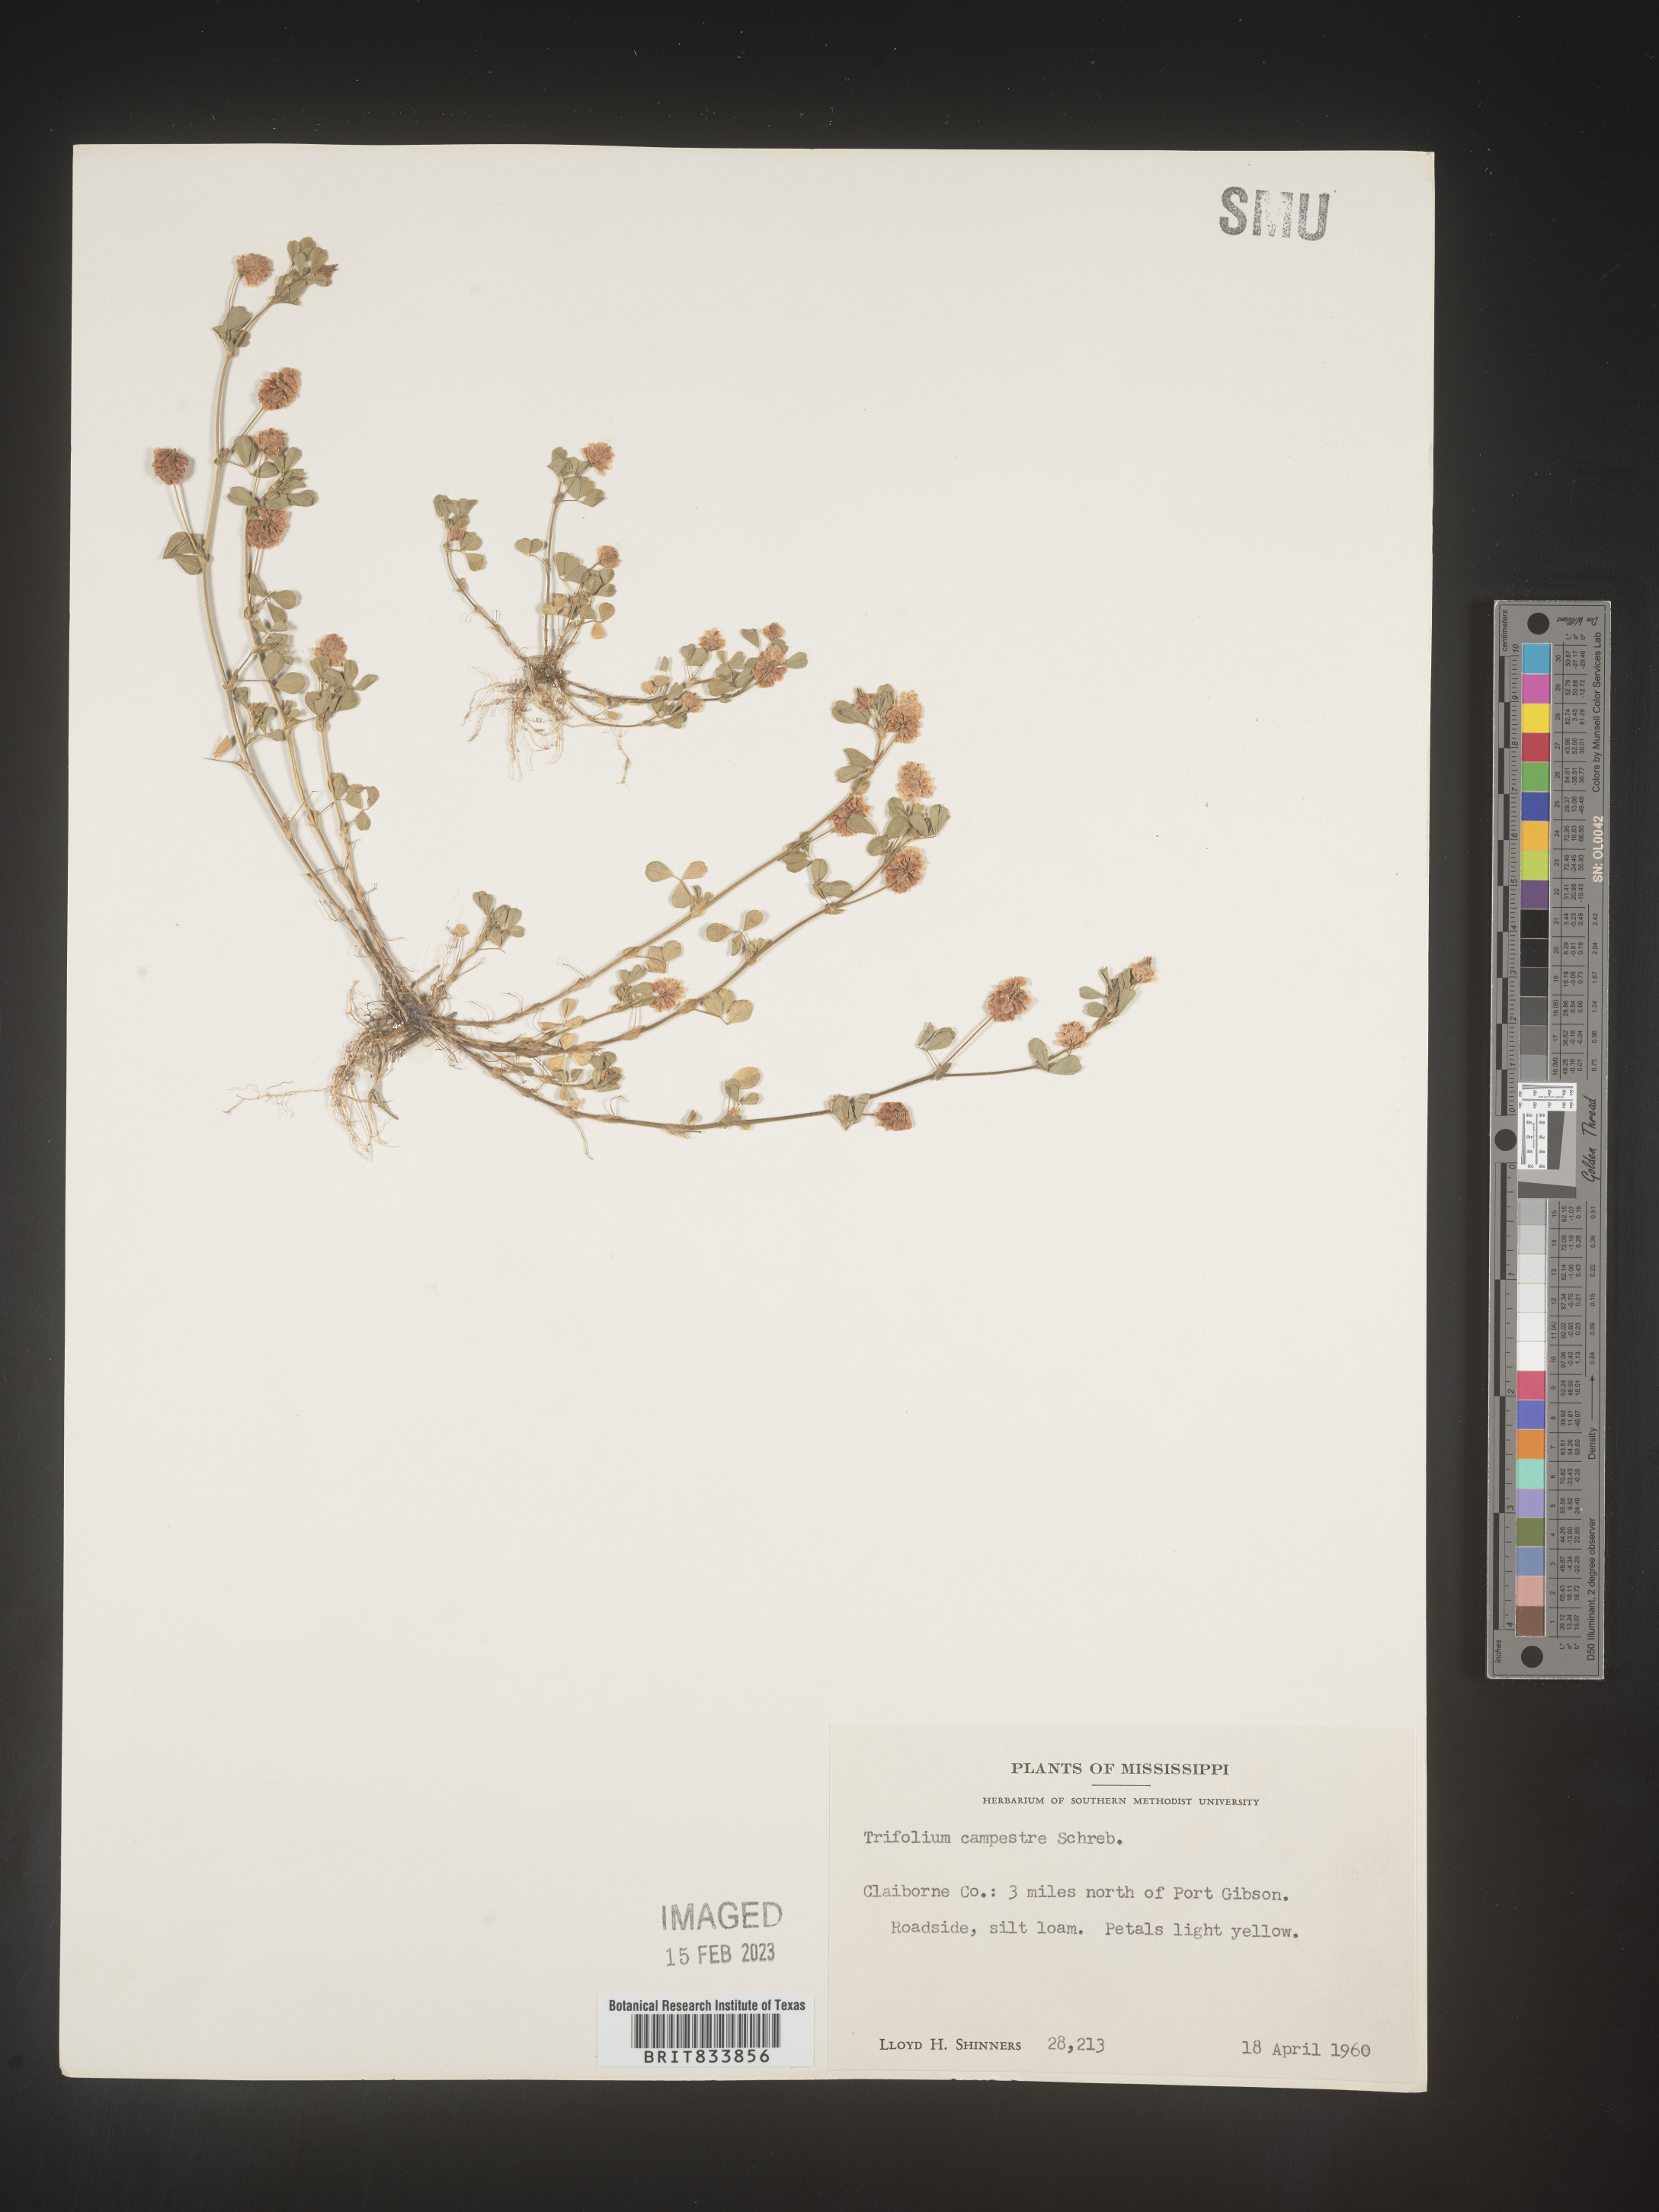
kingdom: Plantae
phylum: Tracheophyta
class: Magnoliopsida
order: Fabales
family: Fabaceae
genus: Trifolium
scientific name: Trifolium campestre
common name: Field clover
